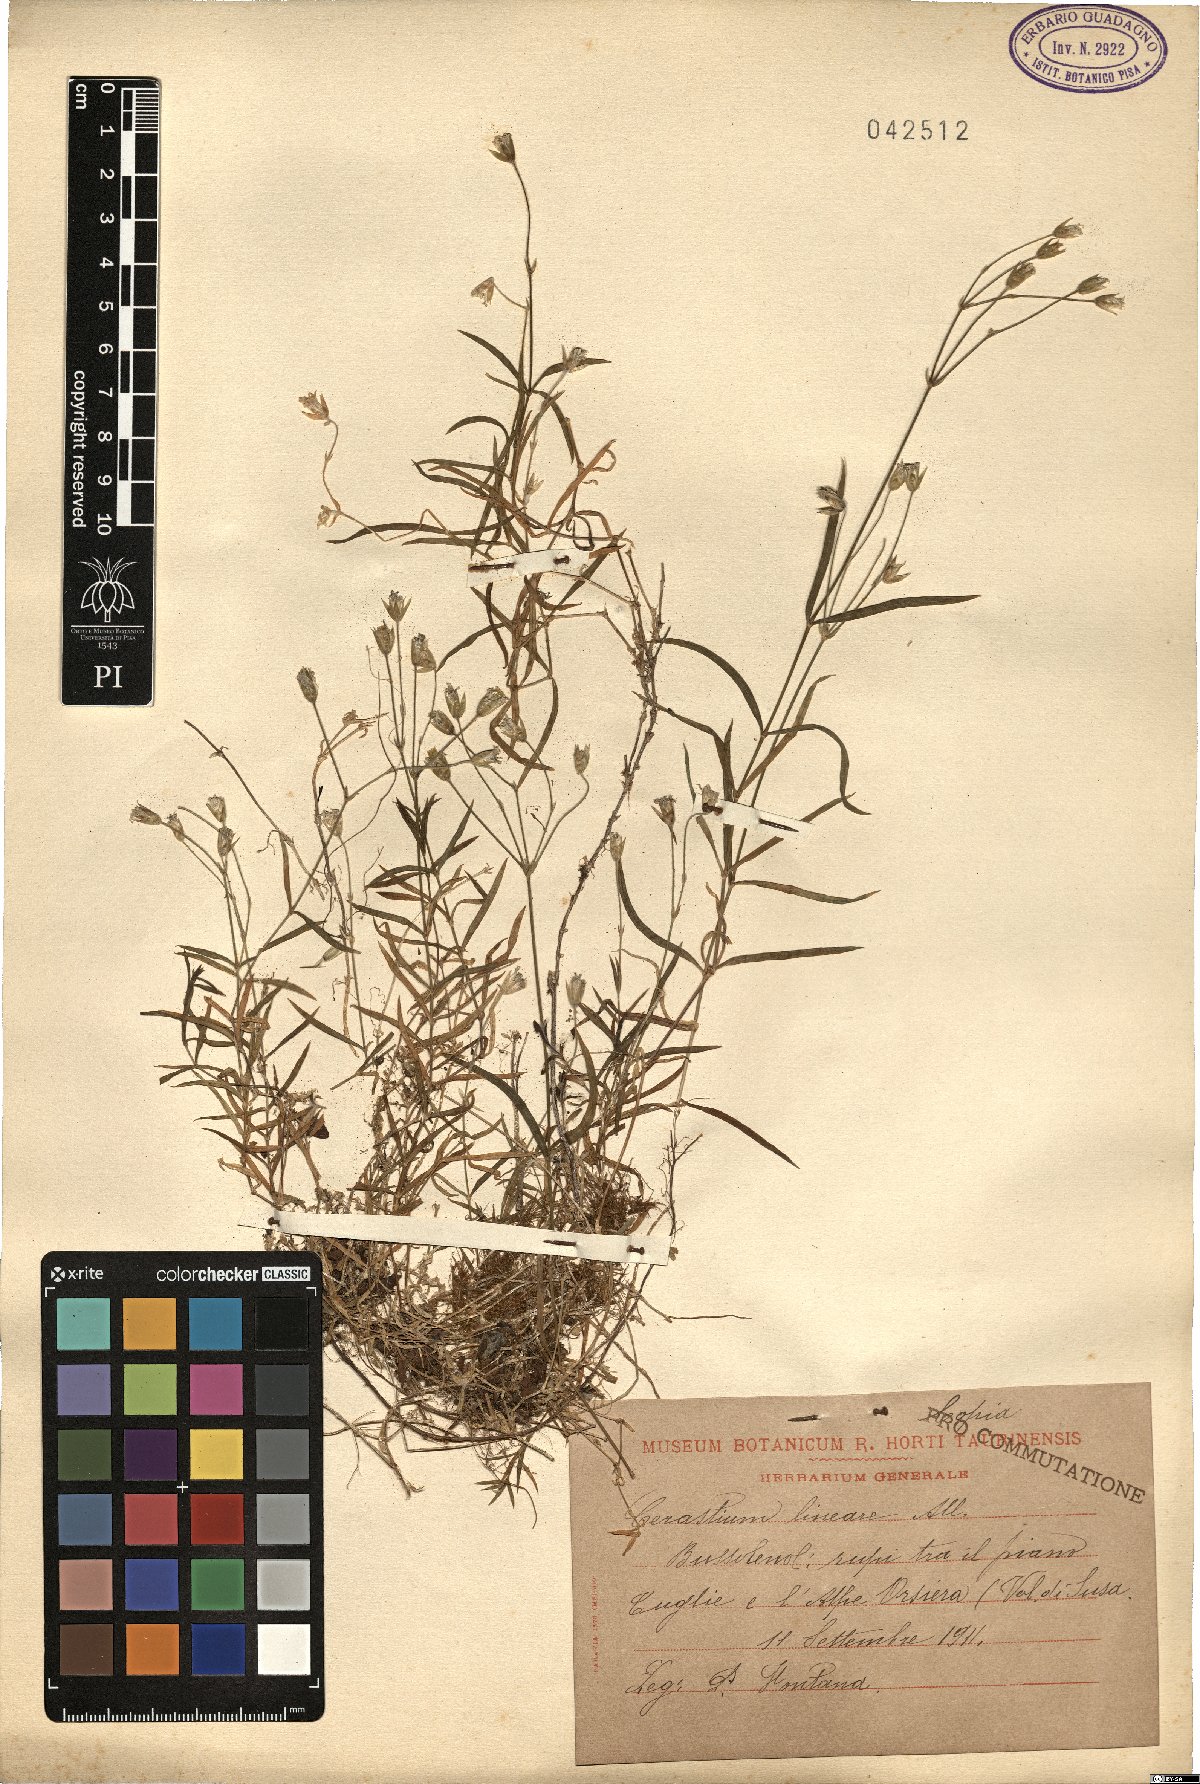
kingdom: Plantae
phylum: Tracheophyta
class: Magnoliopsida
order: Caryophyllales
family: Caryophyllaceae
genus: Cerastium
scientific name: Cerastium lineare
